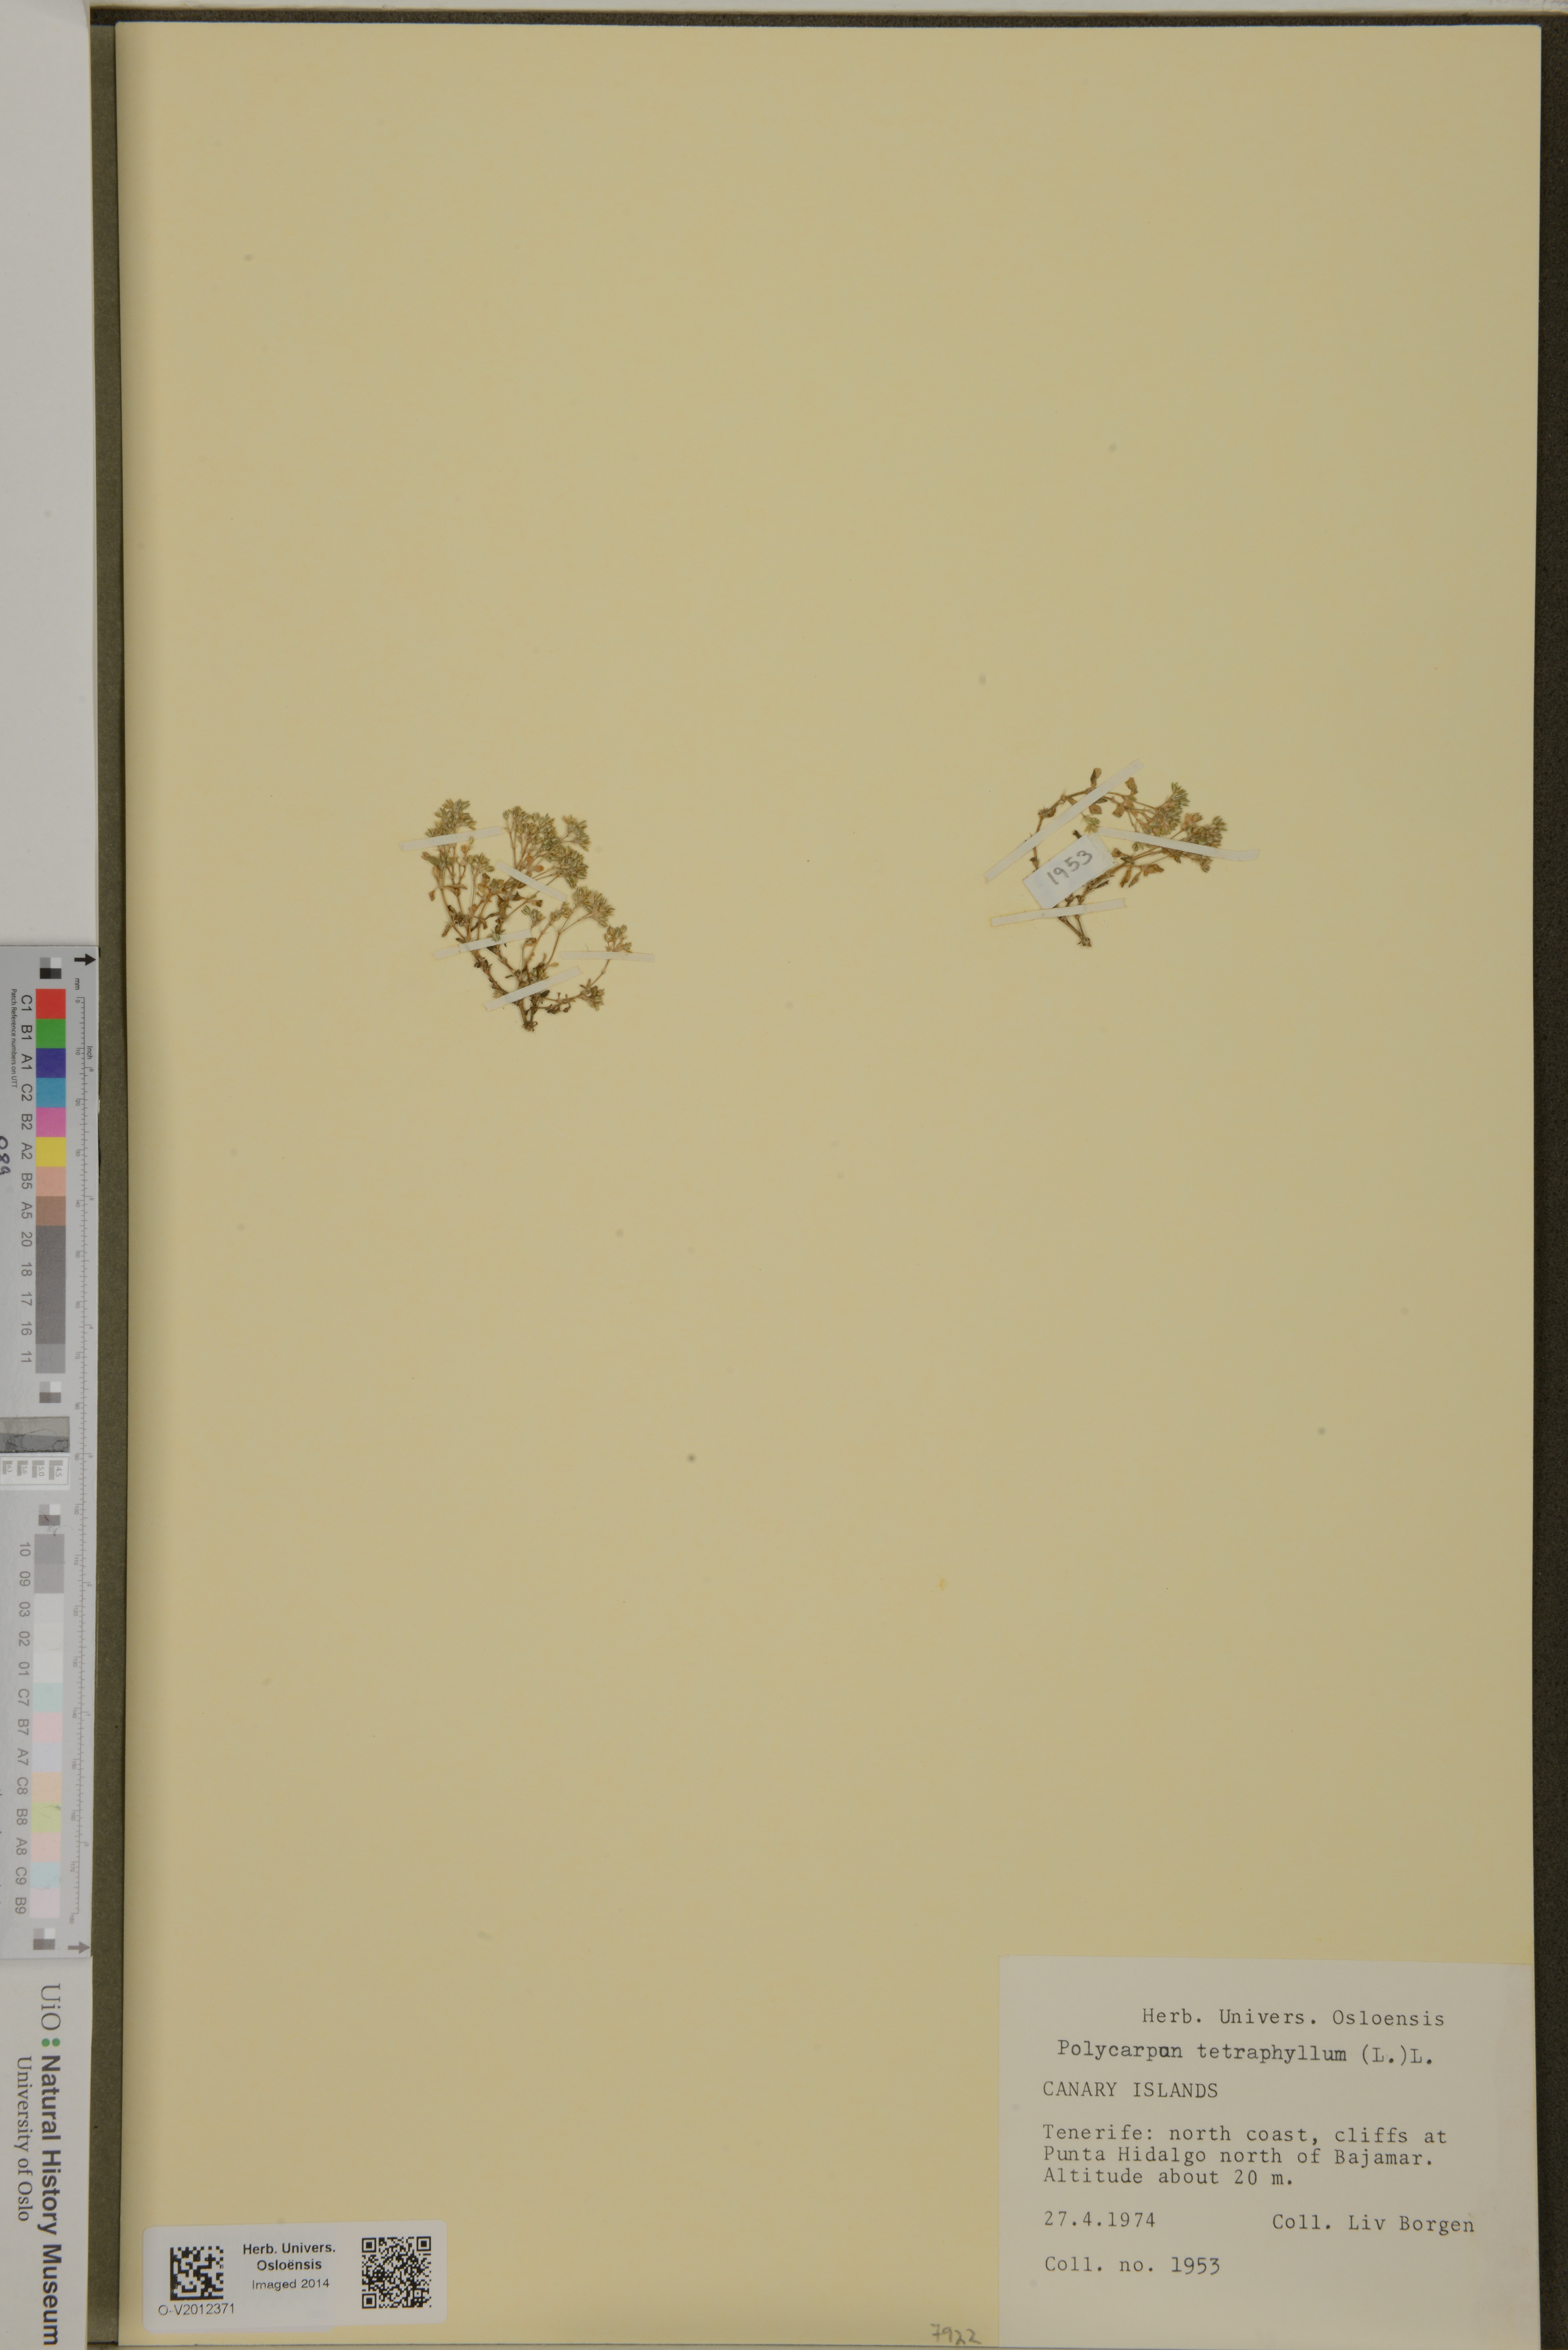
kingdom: Plantae
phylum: Tracheophyta
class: Magnoliopsida
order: Caryophyllales
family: Caryophyllaceae
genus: Polycarpon
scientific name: Polycarpon tetraphyllum
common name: Four-leaved all-seed
